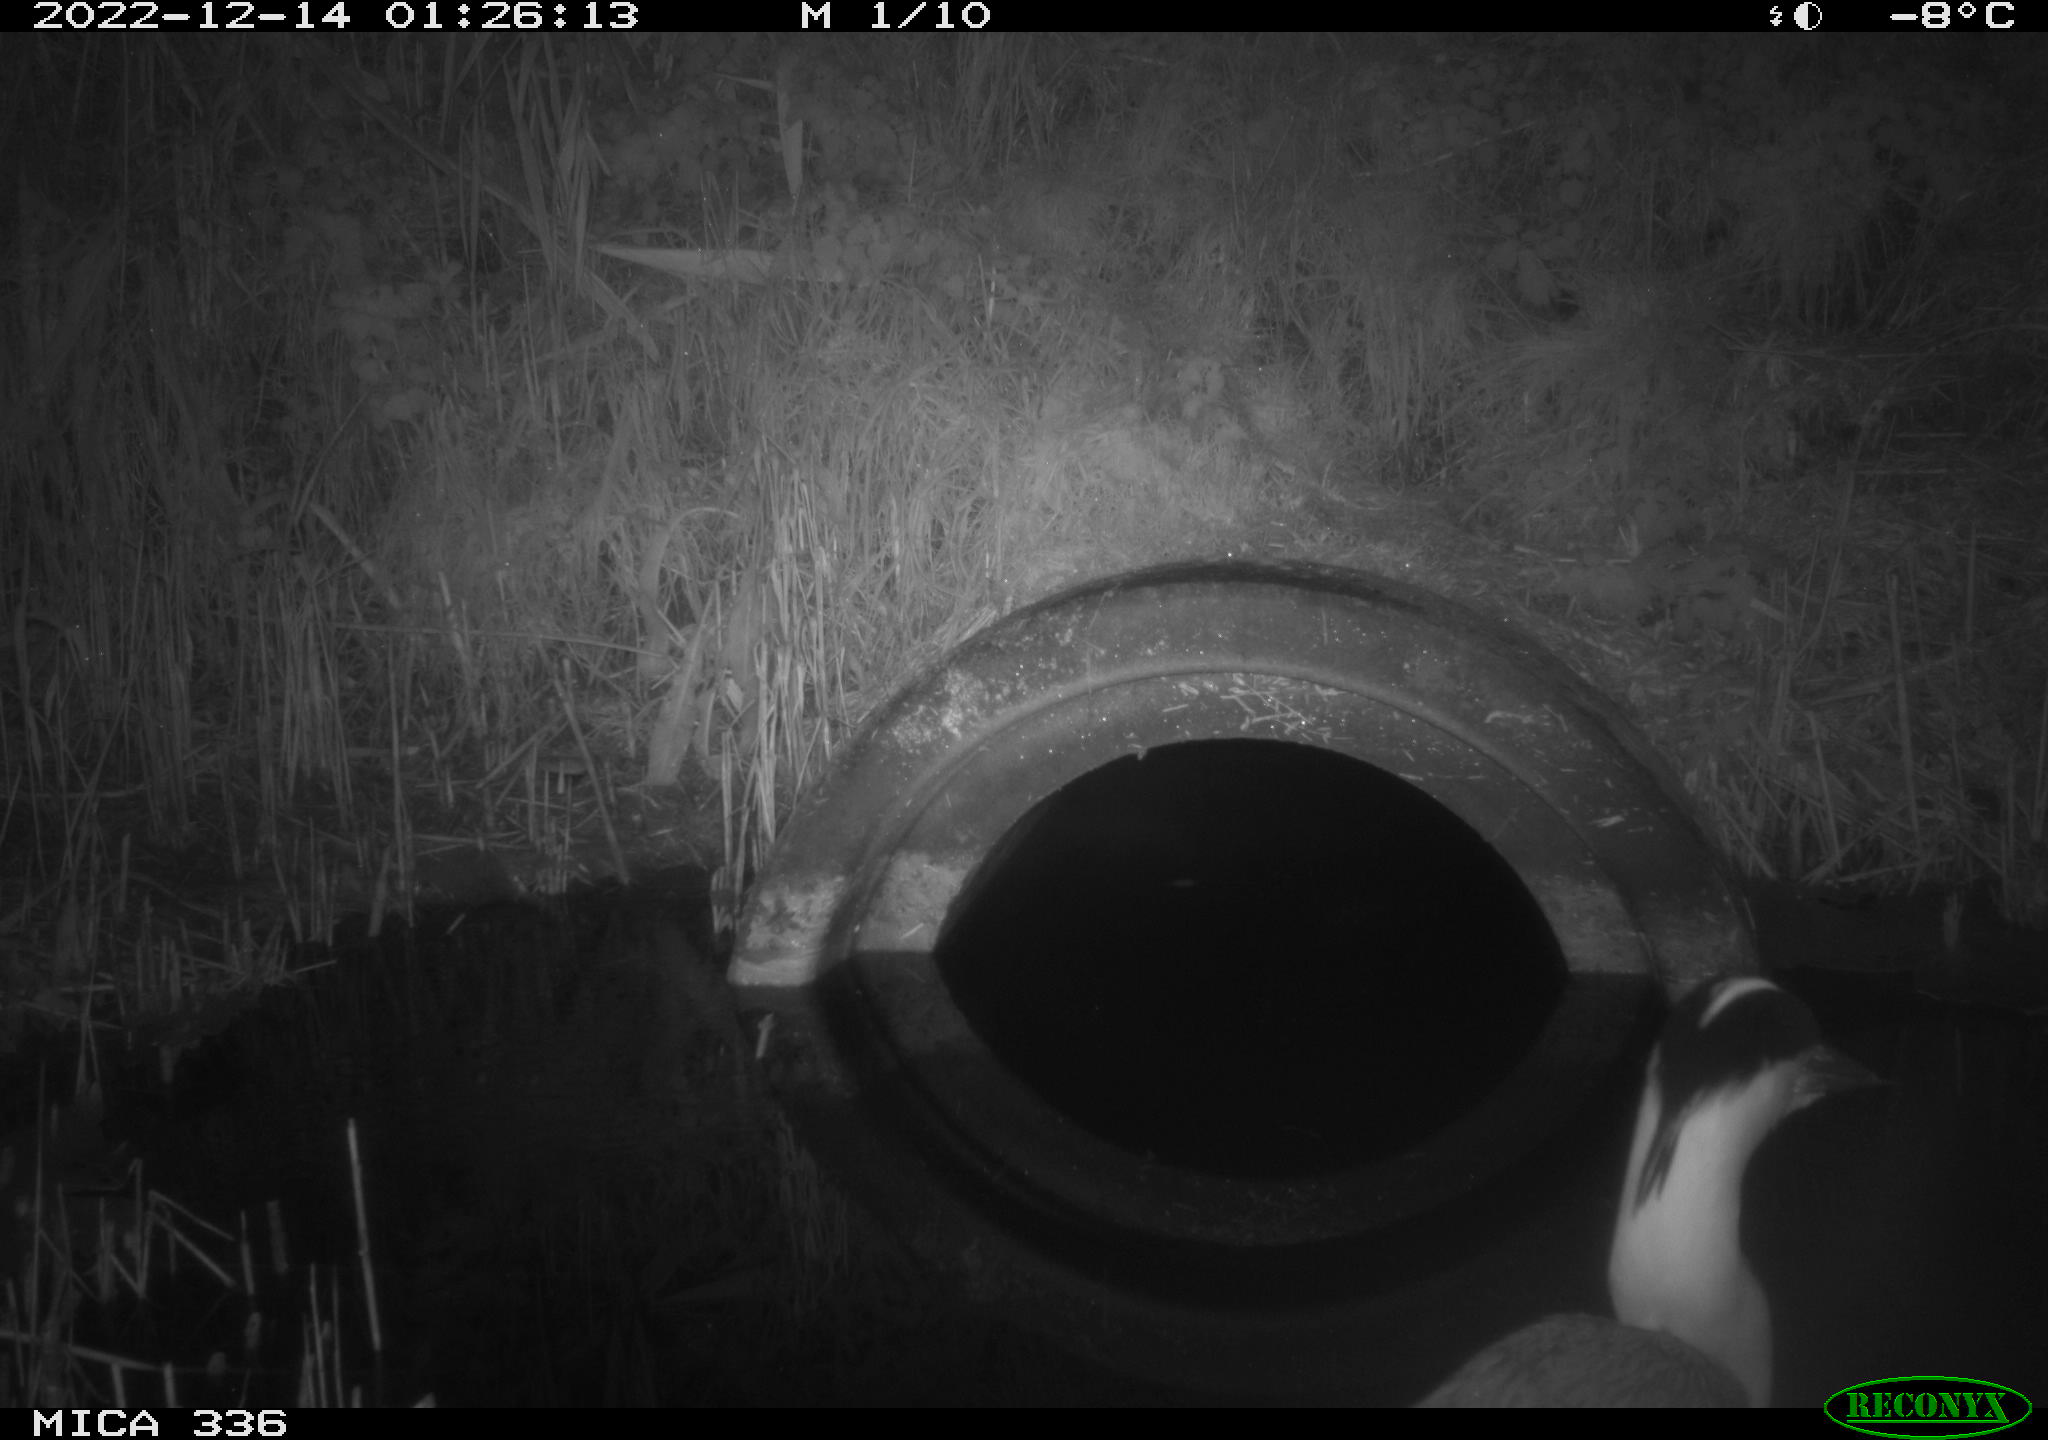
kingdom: Animalia
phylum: Chordata
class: Aves
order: Pelecaniformes
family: Ardeidae
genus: Ardea
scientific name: Ardea cinerea
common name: Grey heron
